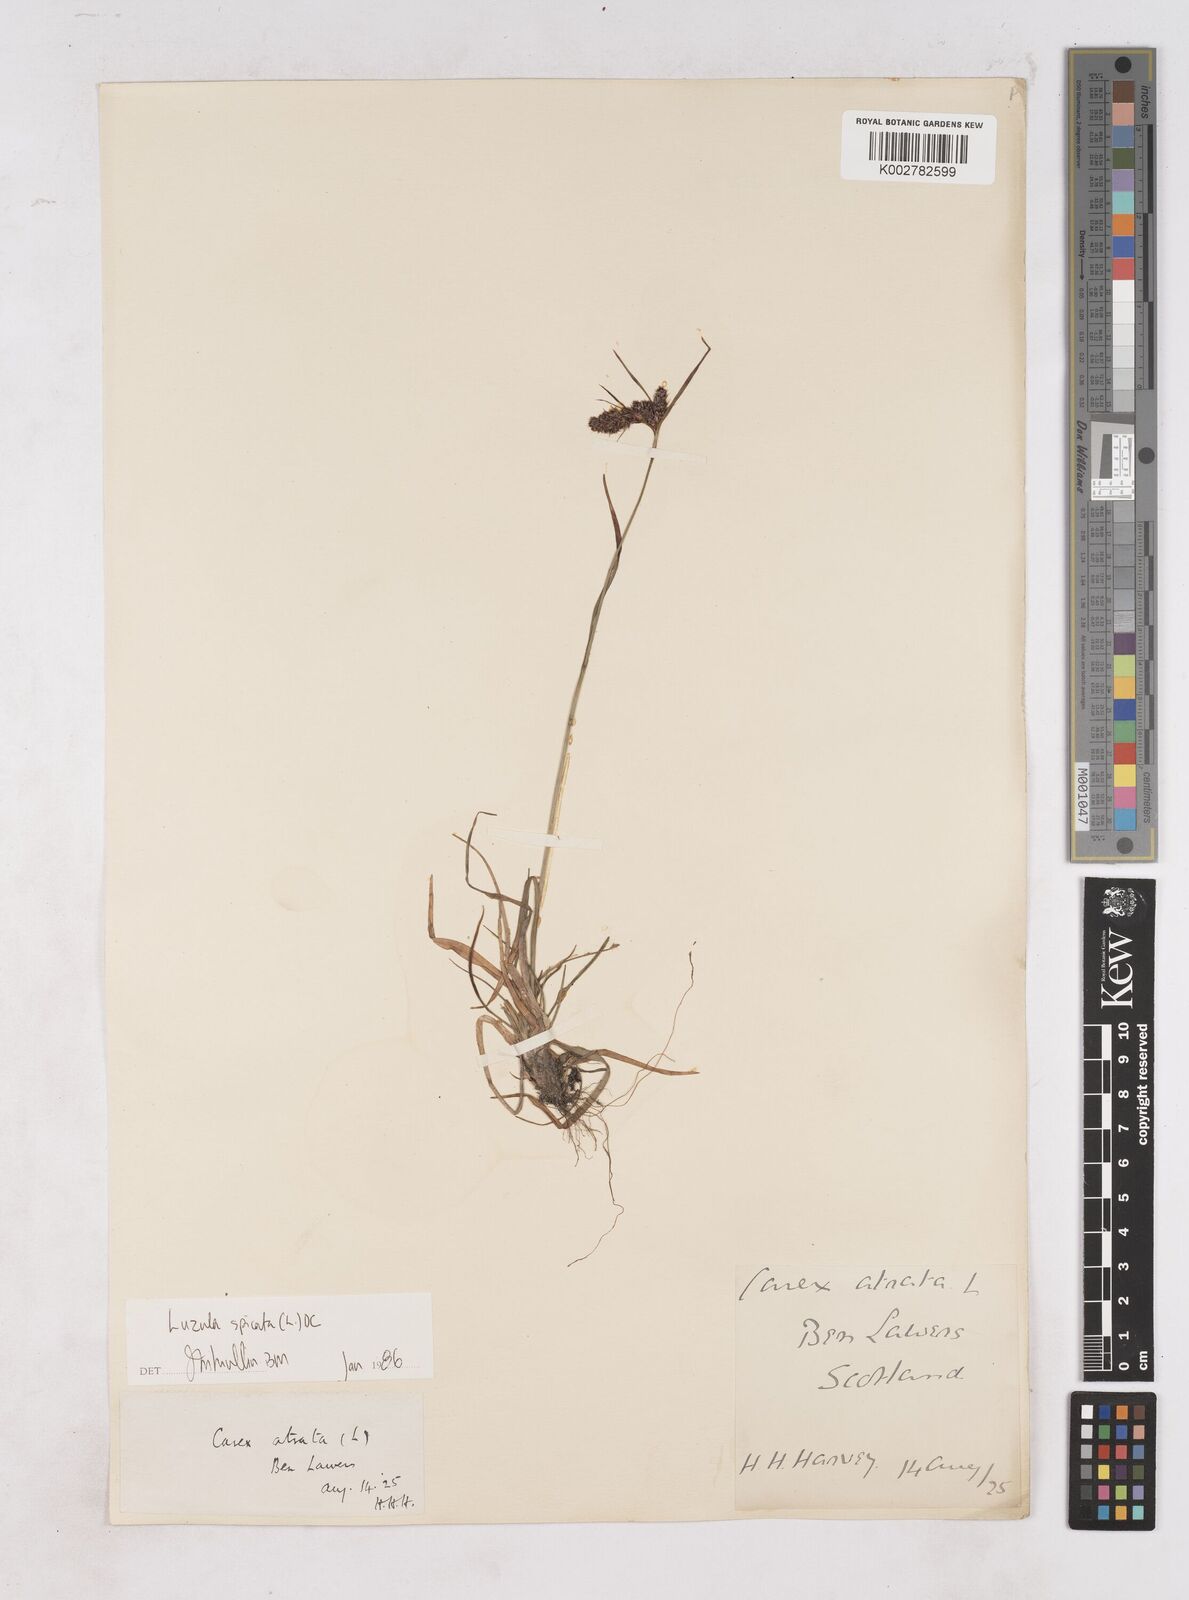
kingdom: Plantae
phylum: Tracheophyta
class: Liliopsida
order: Poales
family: Juncaceae
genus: Luzula
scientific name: Luzula spicata
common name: Spiked wood-rush
